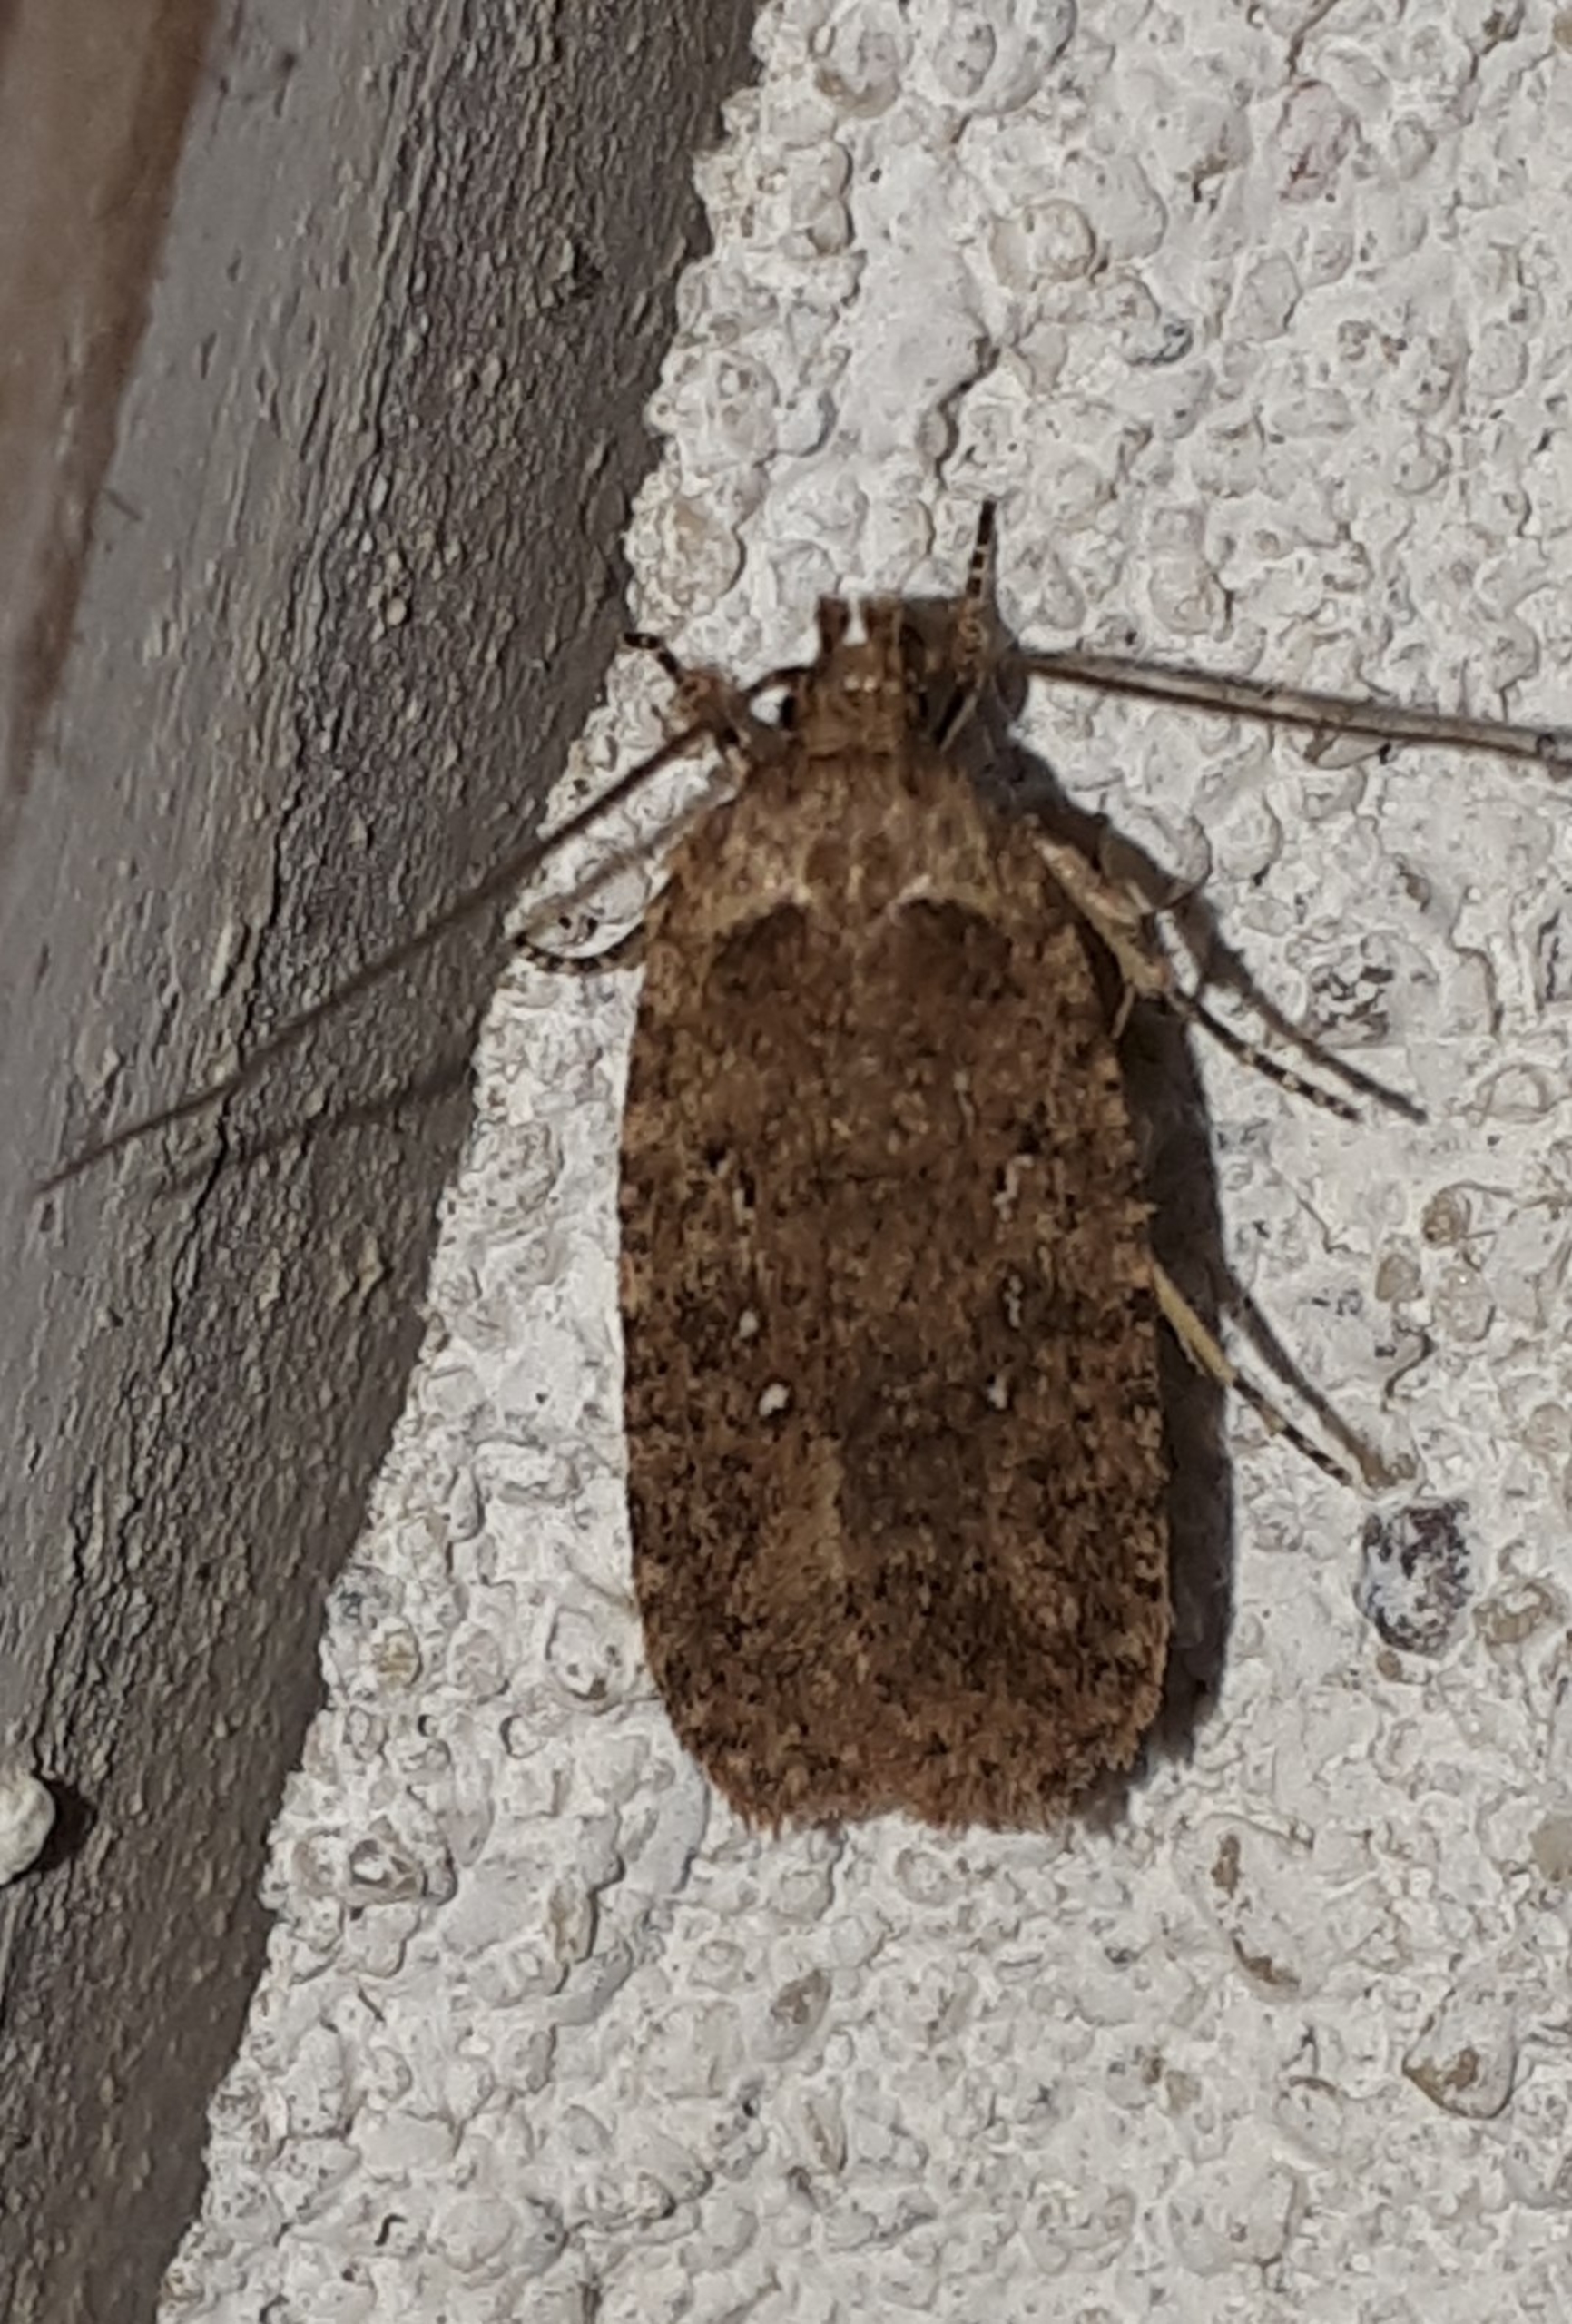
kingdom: Animalia
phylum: Arthropoda
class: Insecta
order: Lepidoptera
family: Depressariidae
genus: Agonopterix
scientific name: Agonopterix heracliana
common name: Almindelig fladmøl
